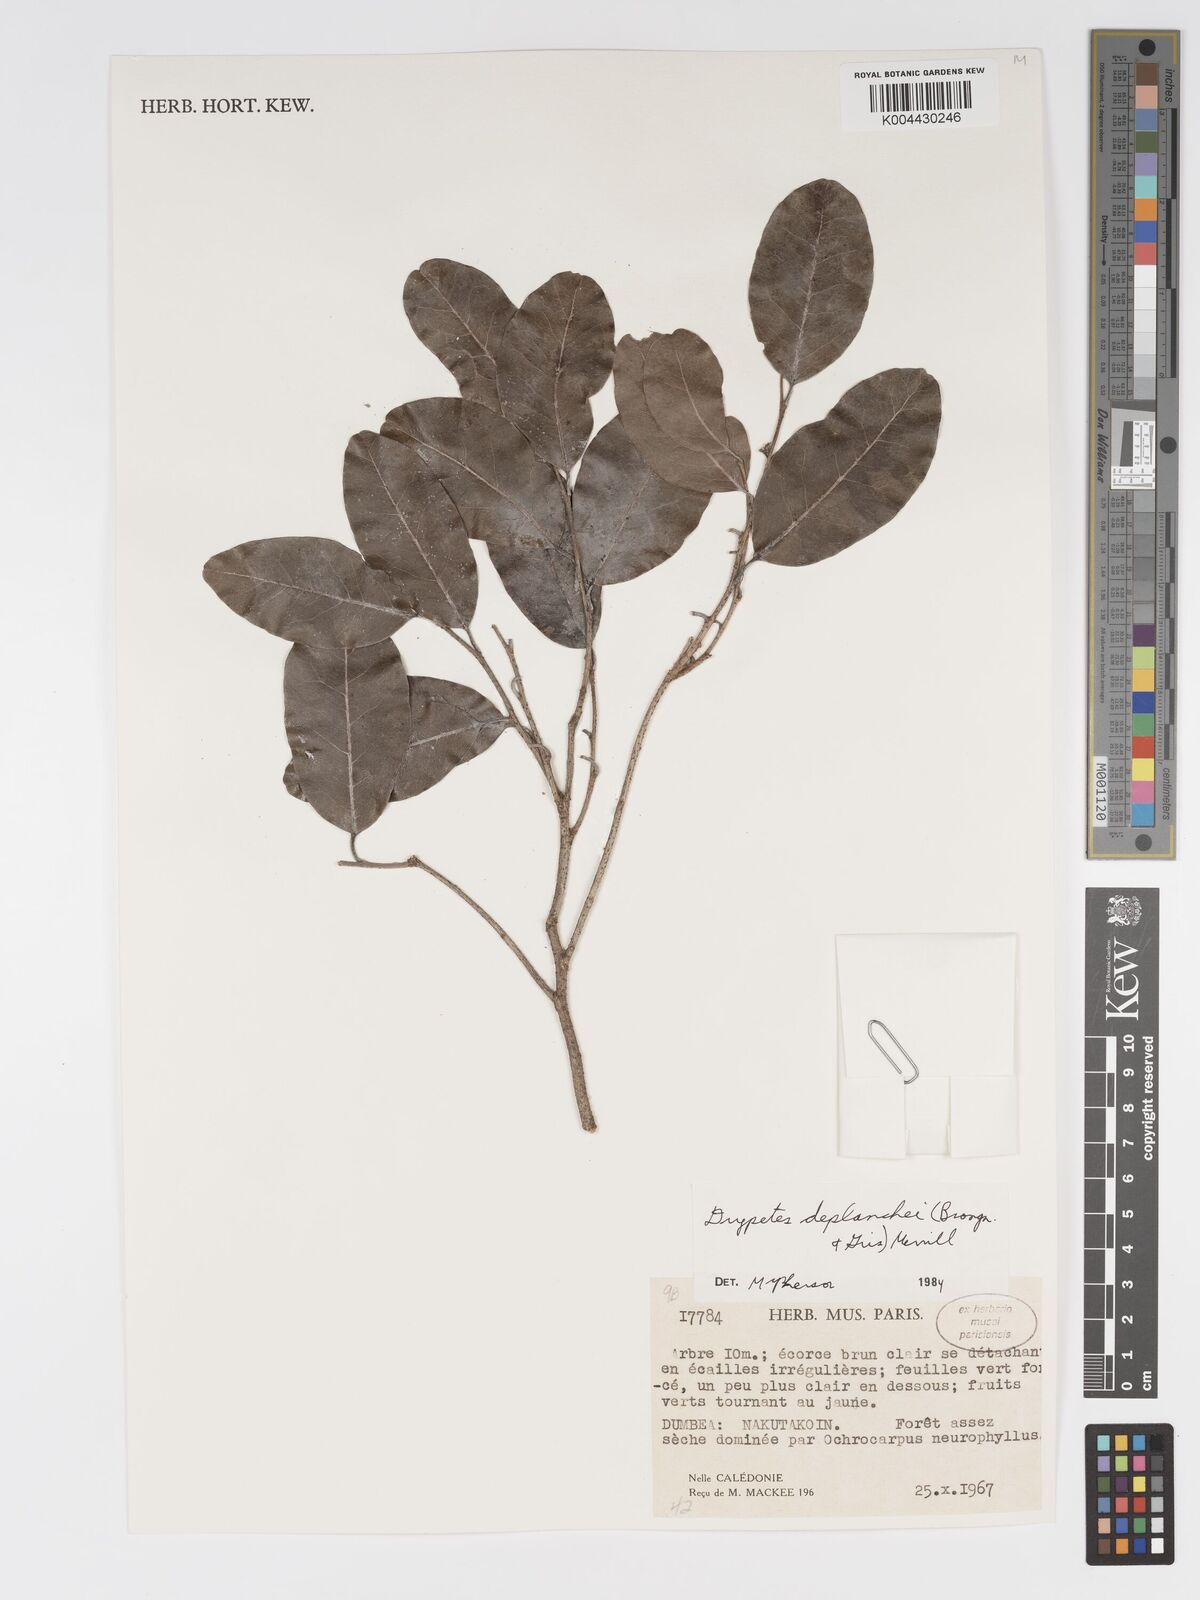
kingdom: Plantae
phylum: Tracheophyta
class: Magnoliopsida
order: Malpighiales
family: Putranjivaceae
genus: Drypetes
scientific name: Drypetes deplanchei
